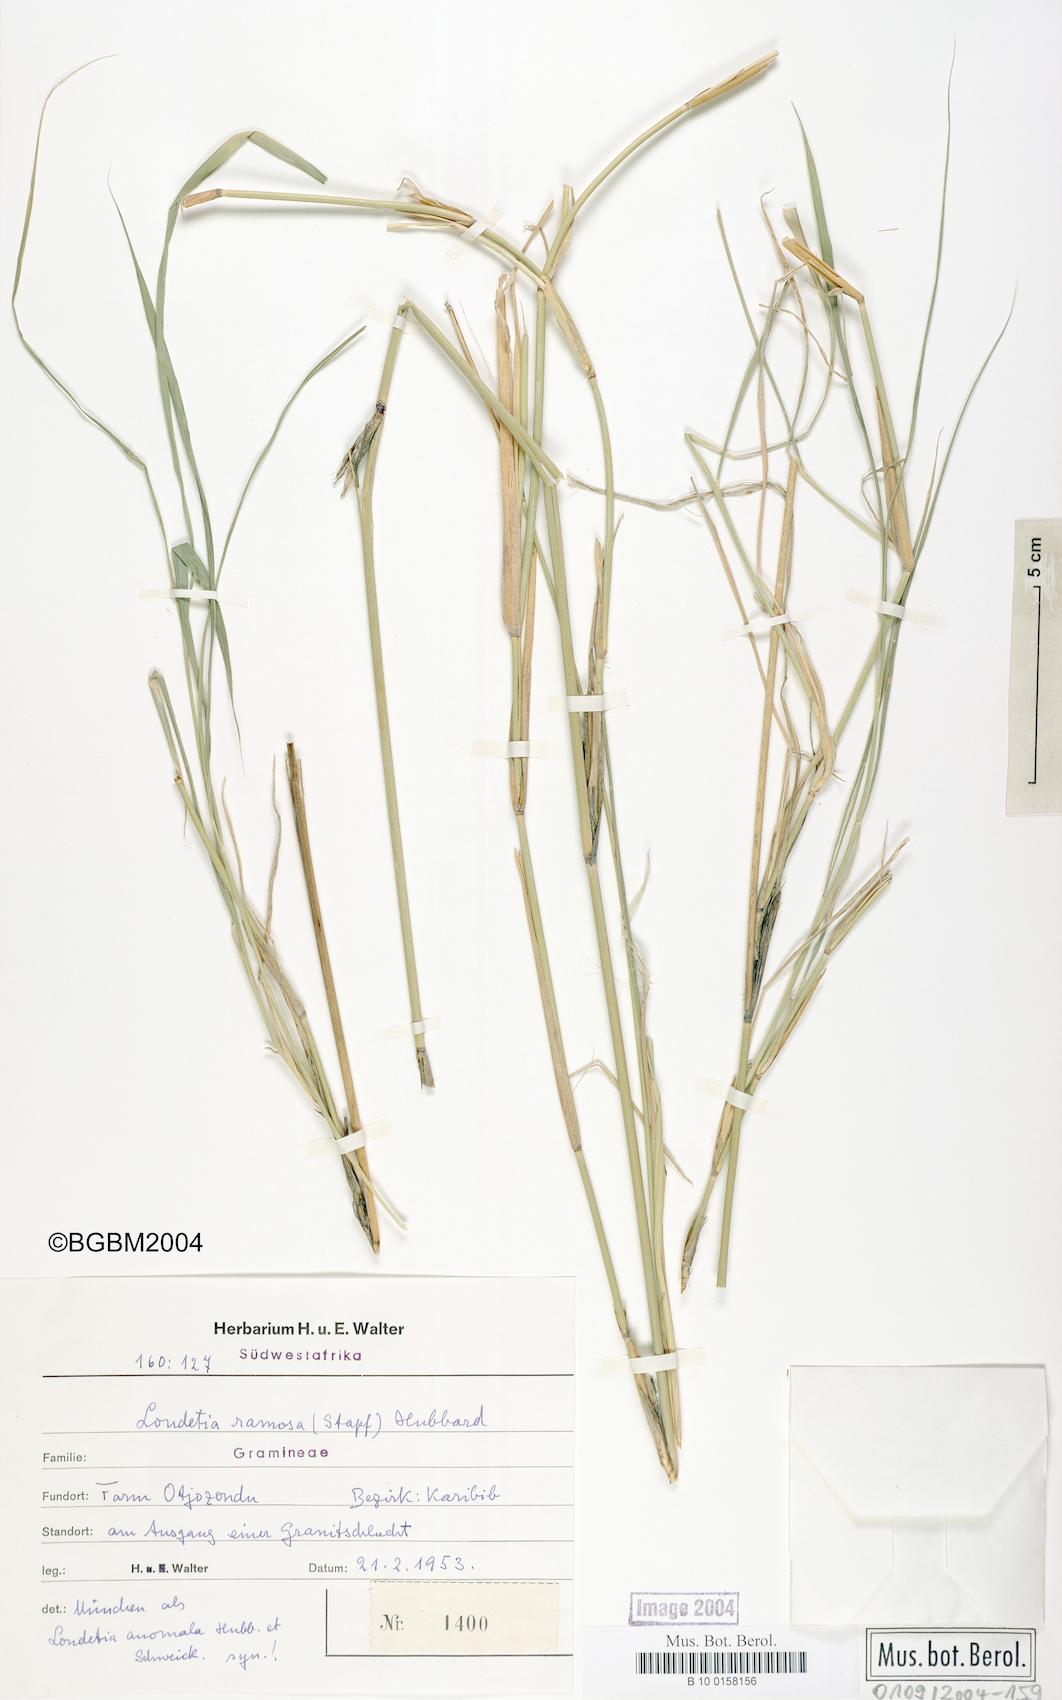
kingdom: Plantae
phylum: Tracheophyta
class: Liliopsida
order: Poales
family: Poaceae
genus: Danthoniopsis
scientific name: Danthoniopsis ramosa
